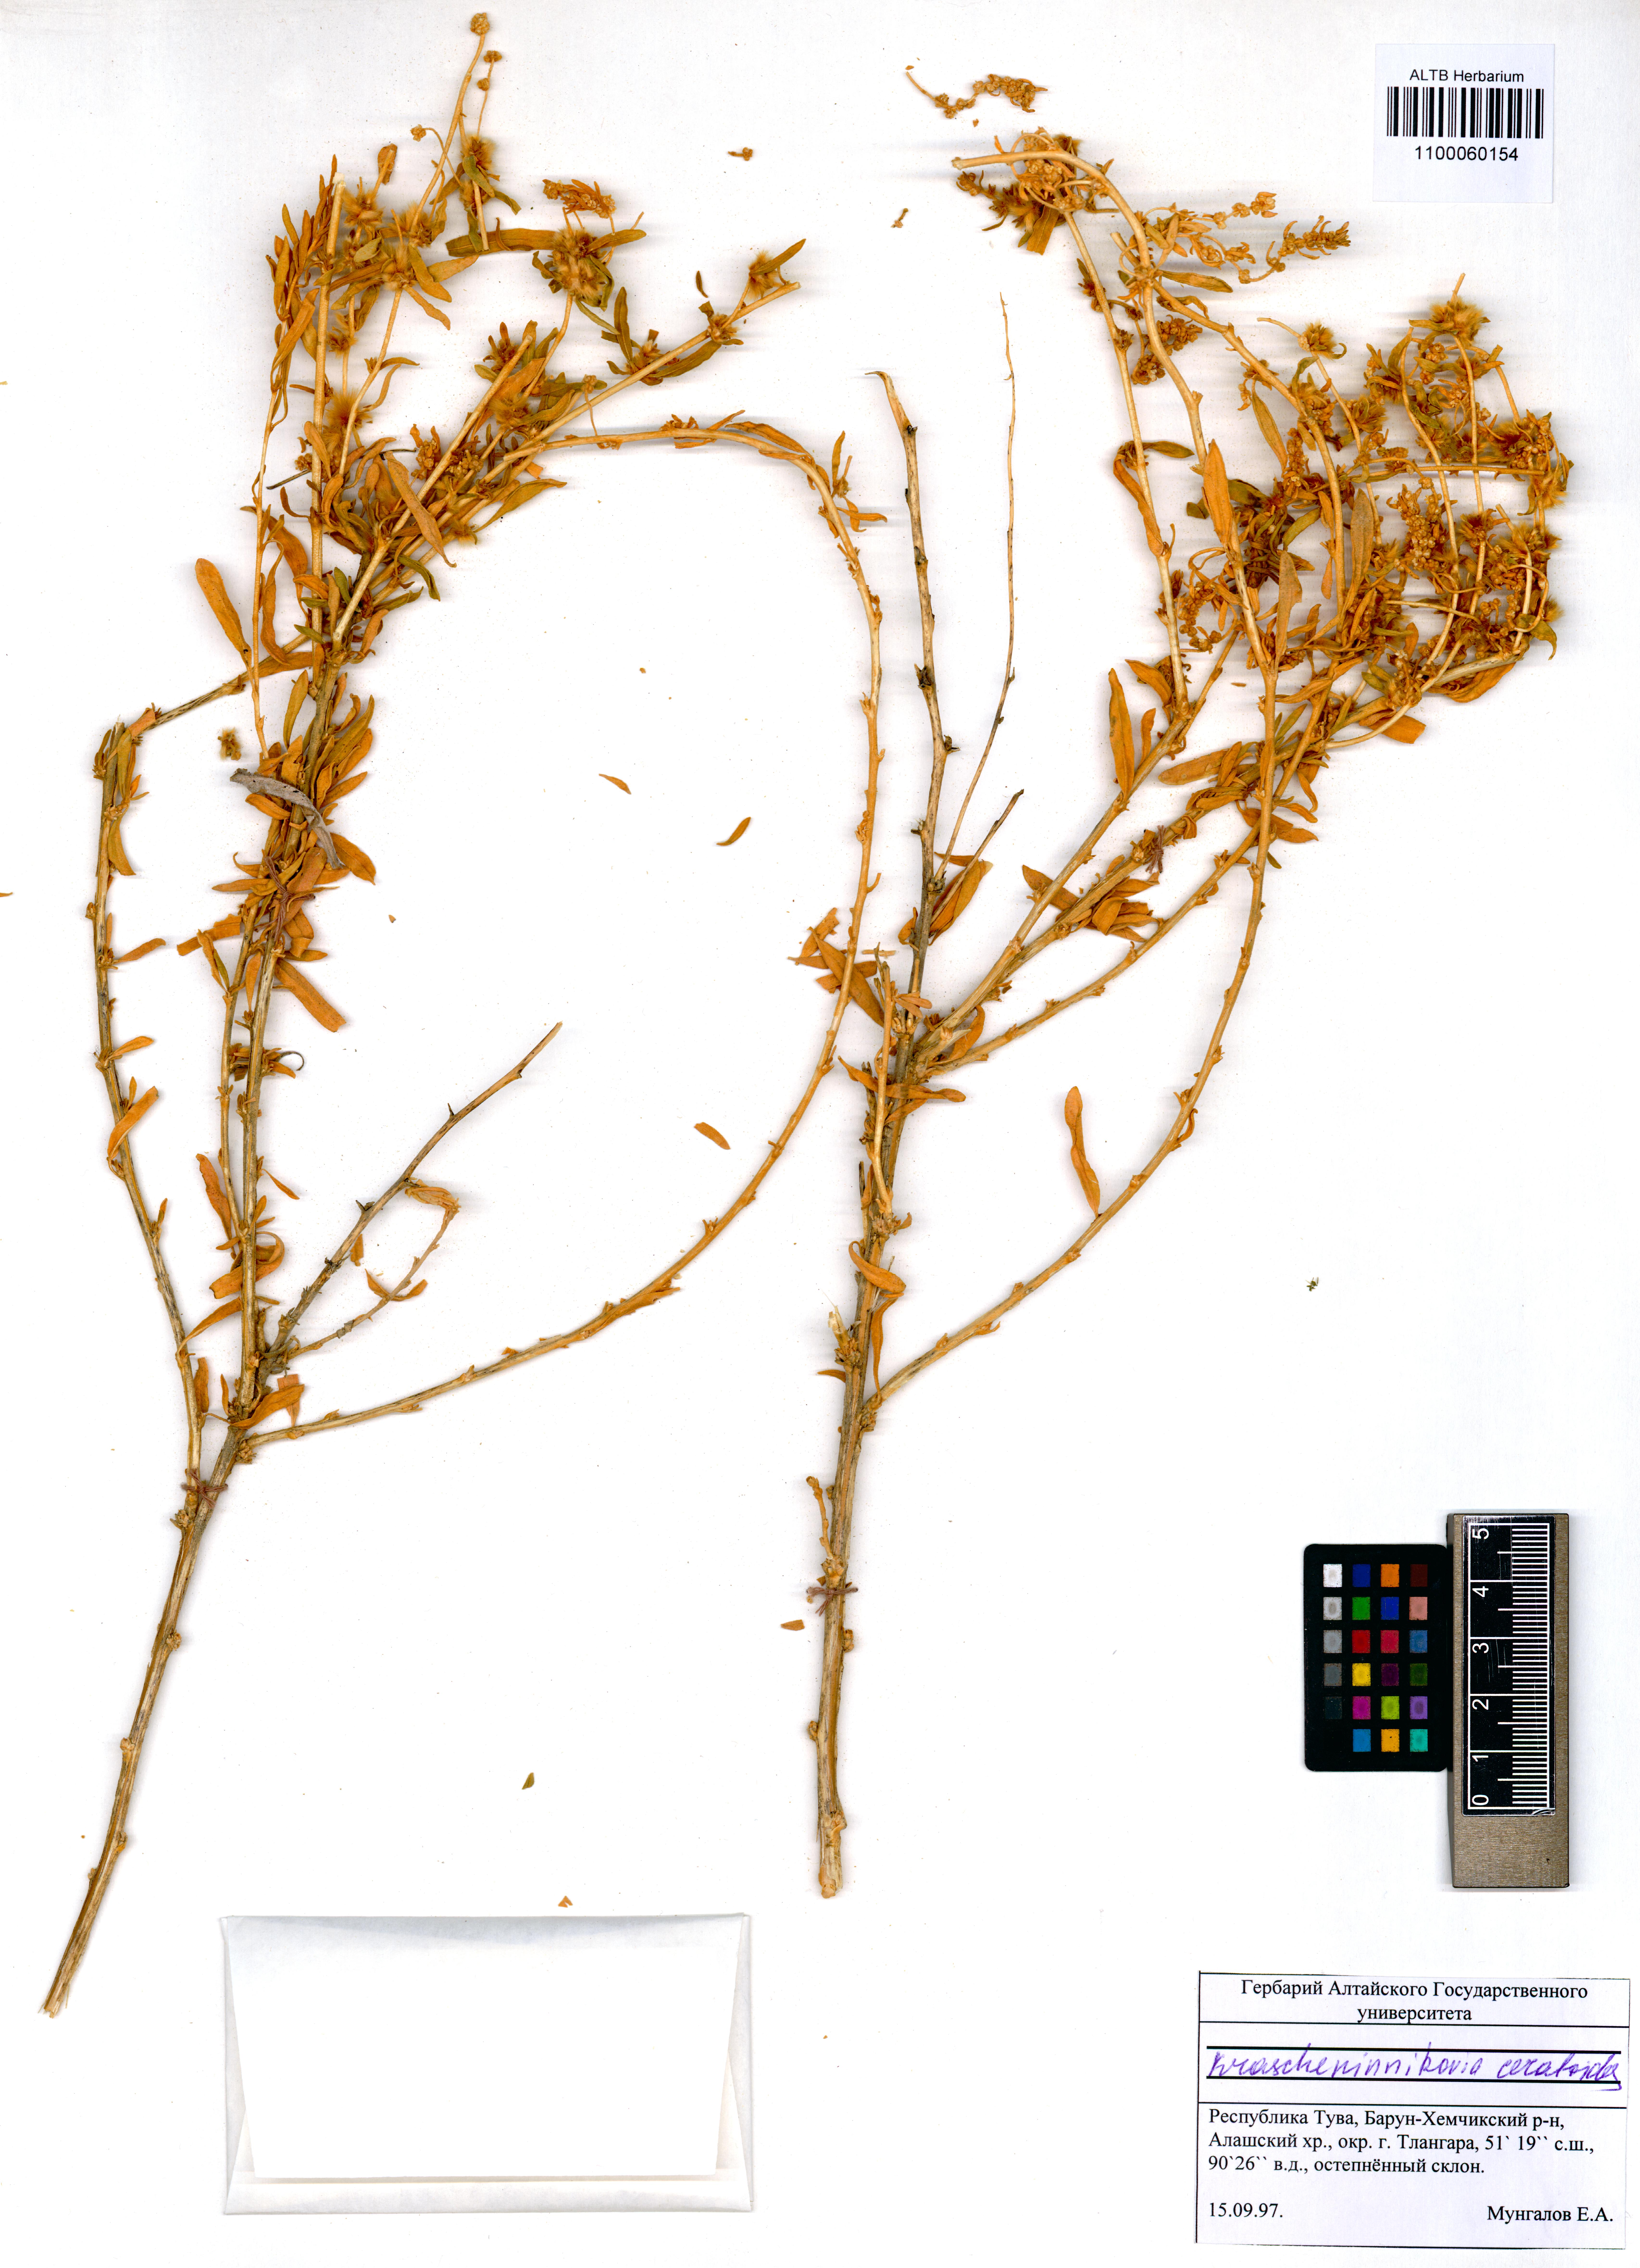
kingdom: Plantae
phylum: Tracheophyta
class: Magnoliopsida
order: Caryophyllales
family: Amaranthaceae
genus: Krascheninnikovia
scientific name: Krascheninnikovia ceratoides
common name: Pamirian winterfat
